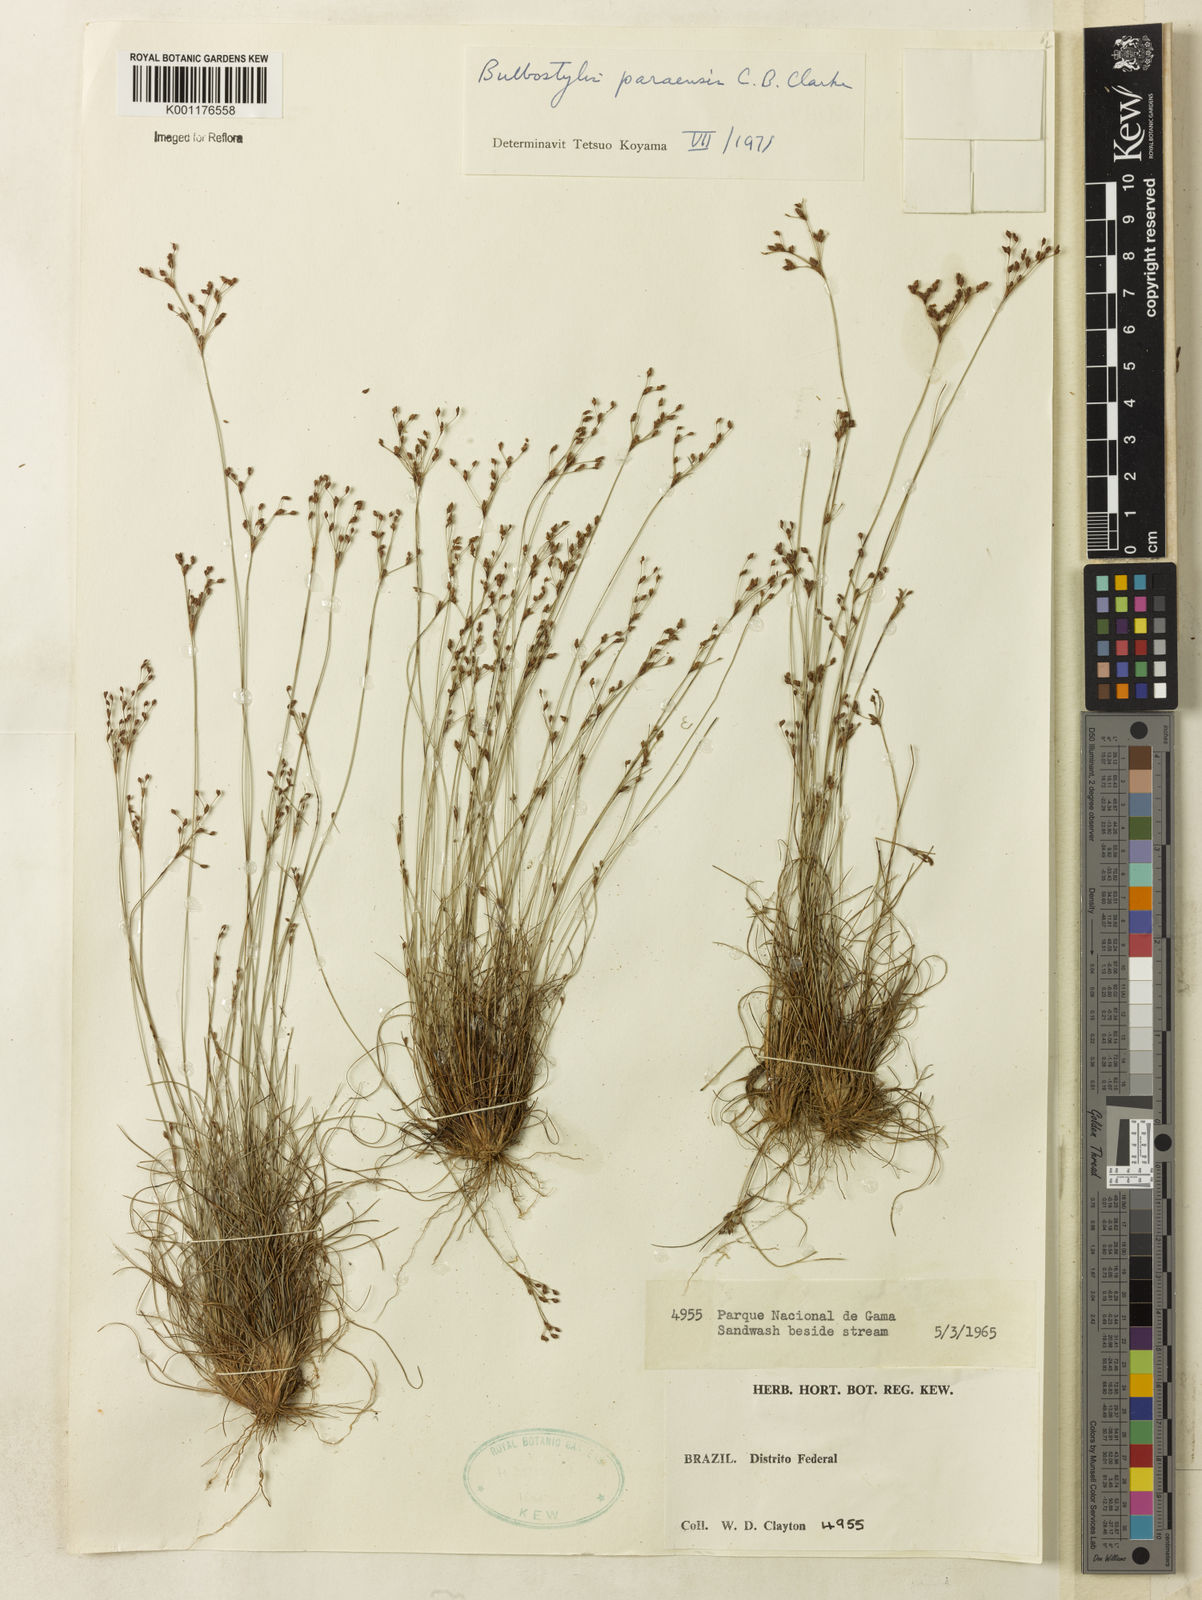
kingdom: Plantae
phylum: Tracheophyta
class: Liliopsida
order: Poales
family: Cyperaceae
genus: Bulbostylis
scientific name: Bulbostylis paraensis
